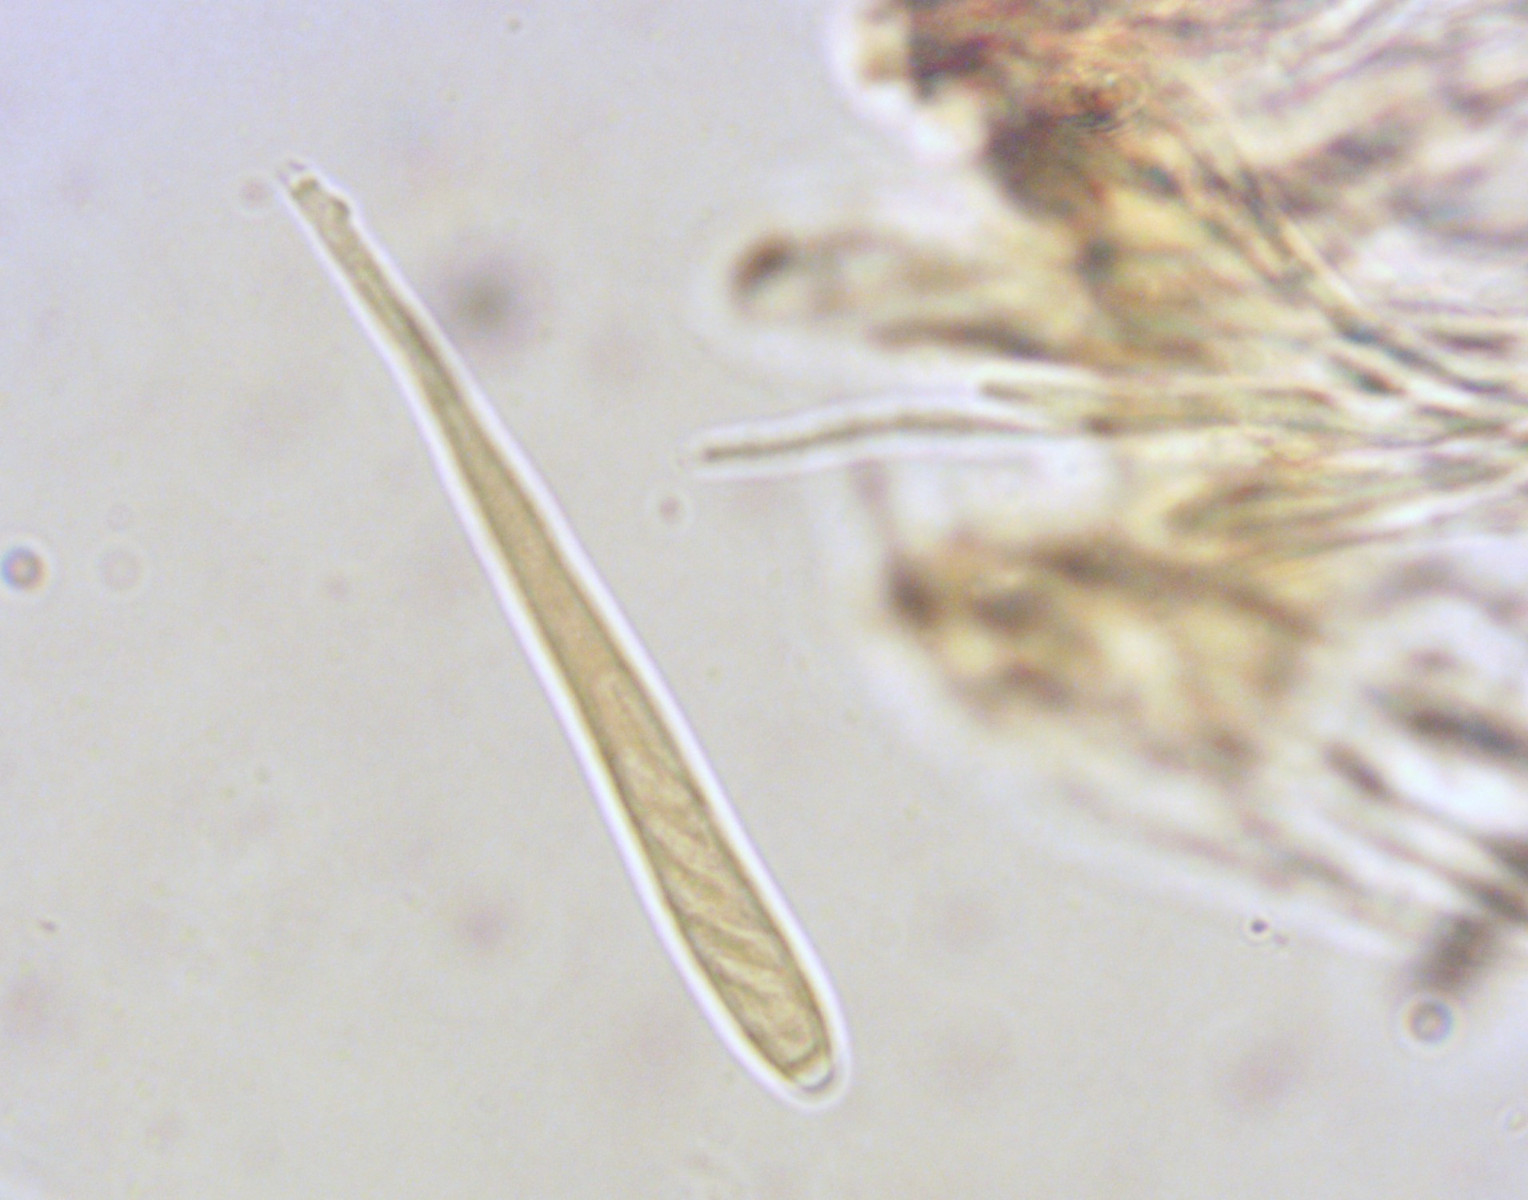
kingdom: Fungi
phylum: Ascomycota
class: Leotiomycetes
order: Helotiales
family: Helotiaceae
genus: Bisporella
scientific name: Bisporella subpallida
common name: lys snitskive
